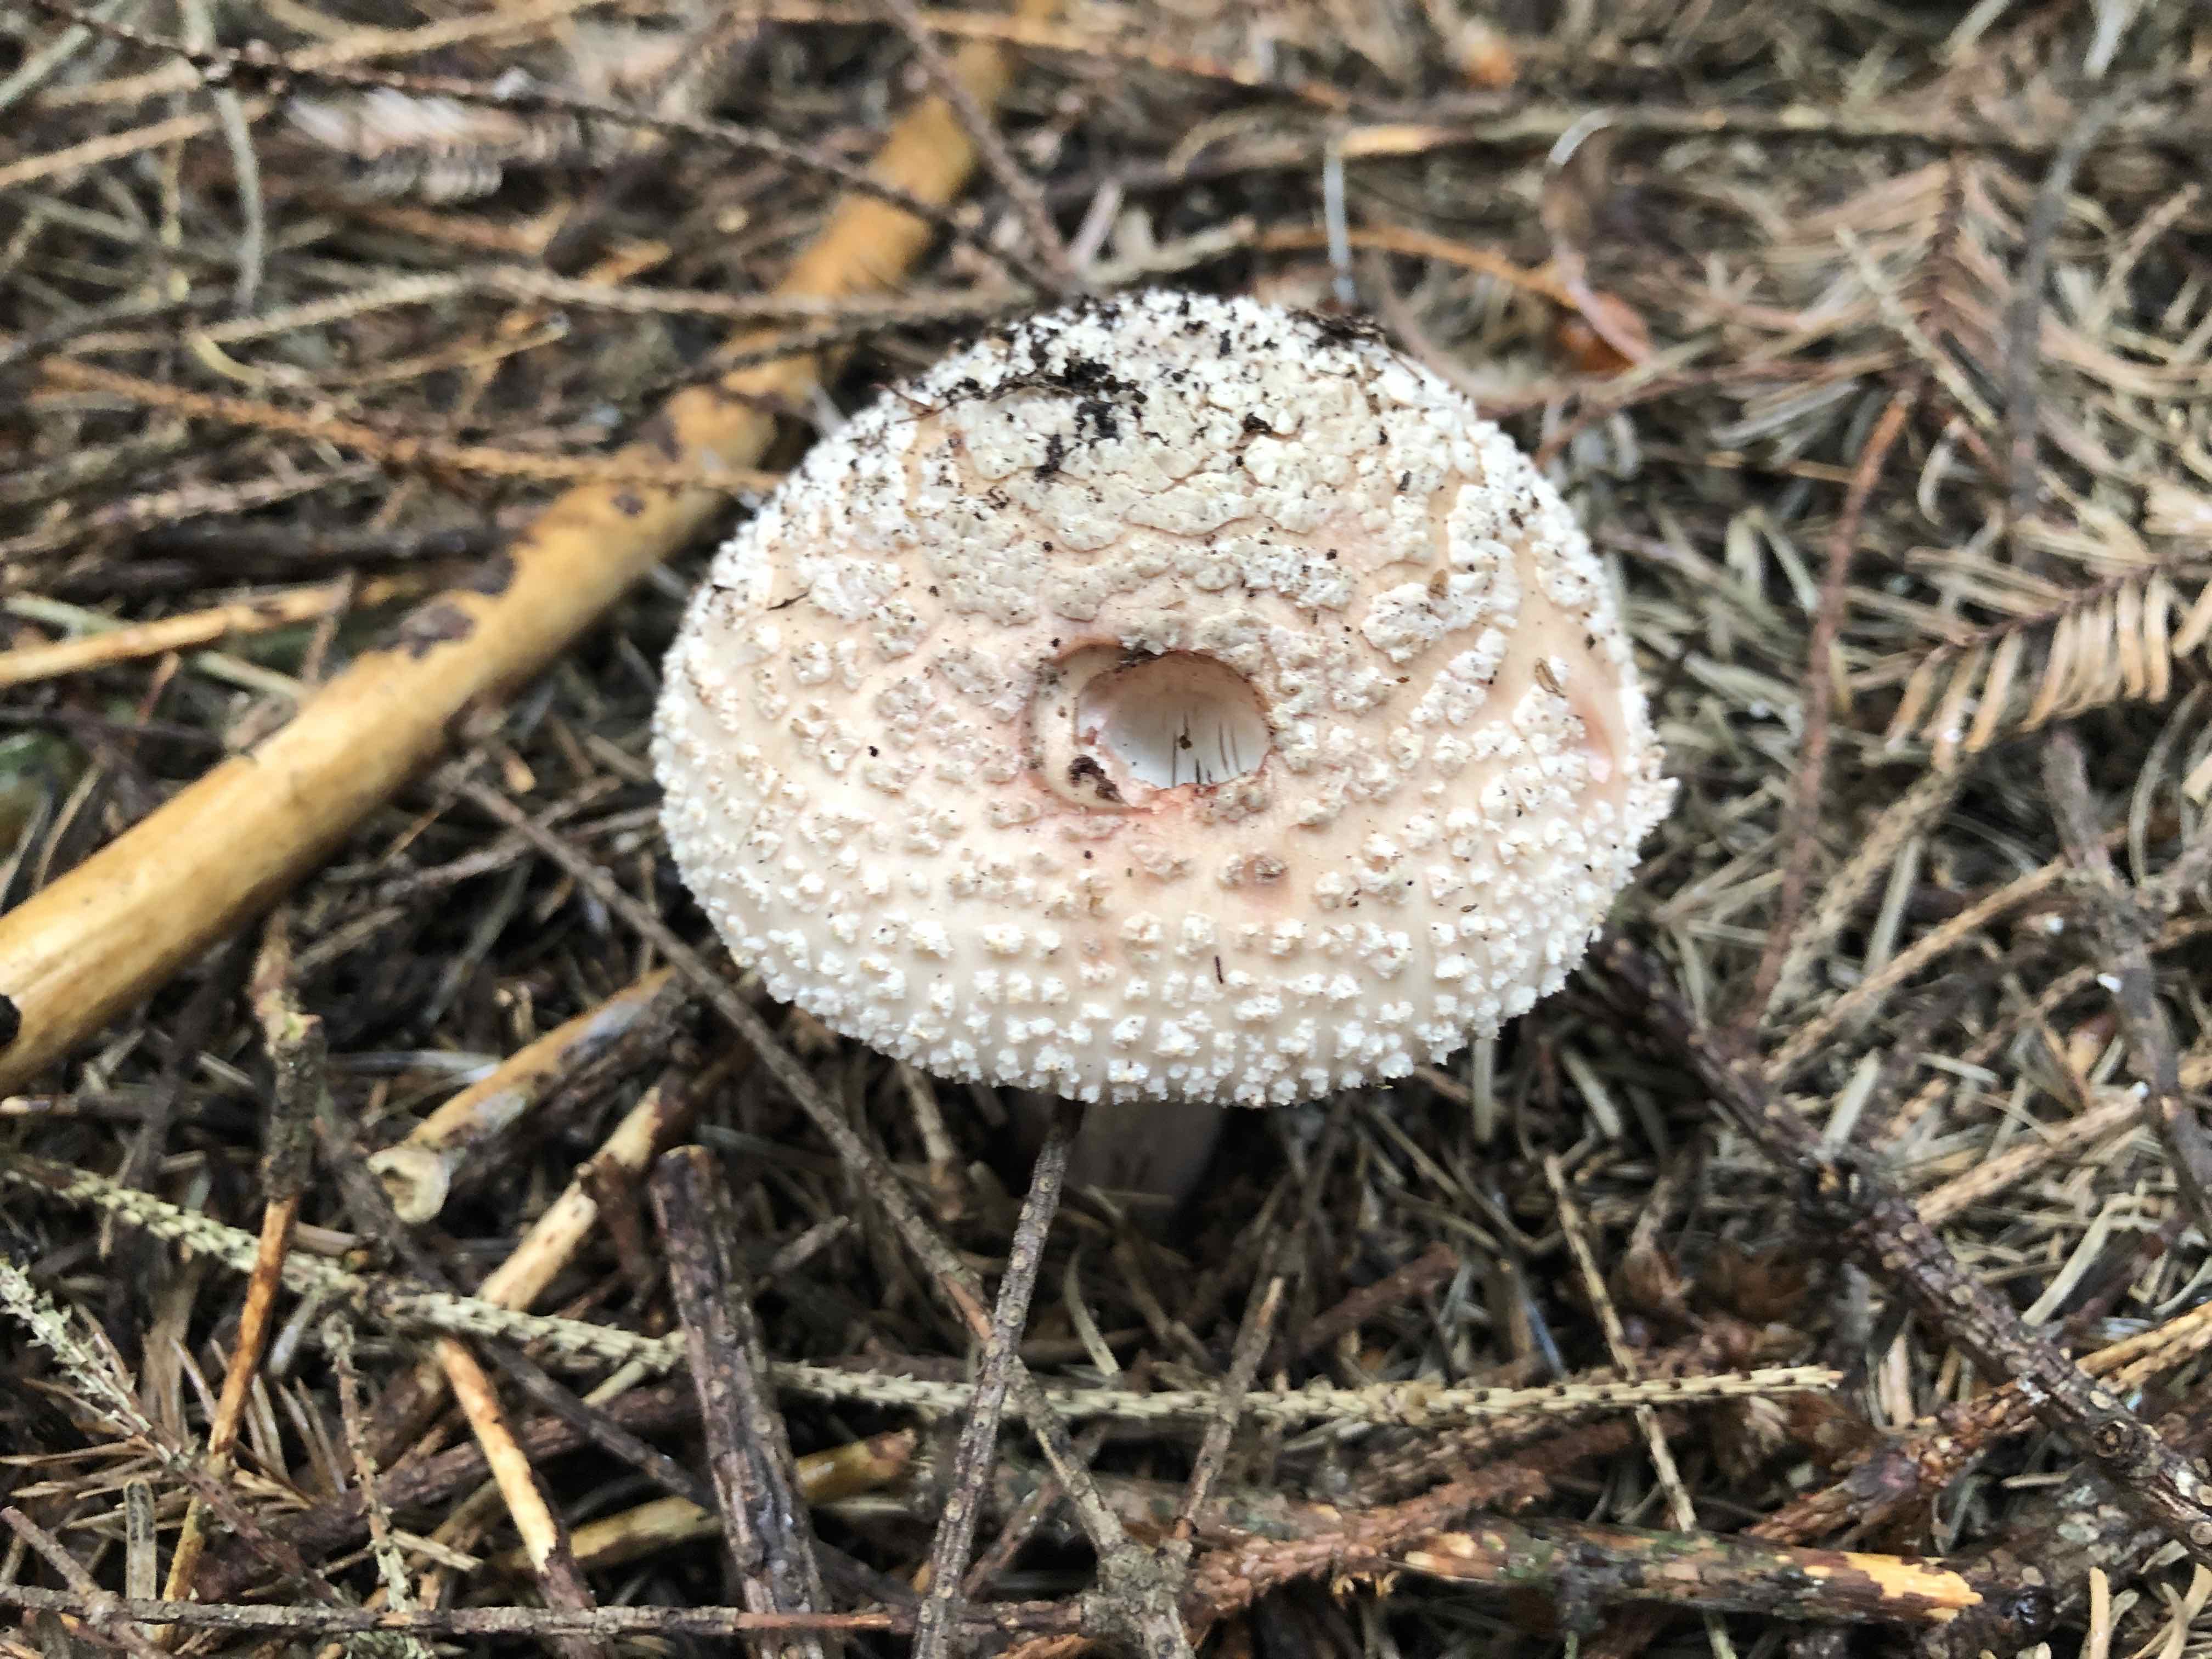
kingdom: Fungi
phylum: Basidiomycota
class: Agaricomycetes
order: Agaricales
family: Amanitaceae
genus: Amanita
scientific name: Amanita rubescens
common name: rødmende fluesvamp
